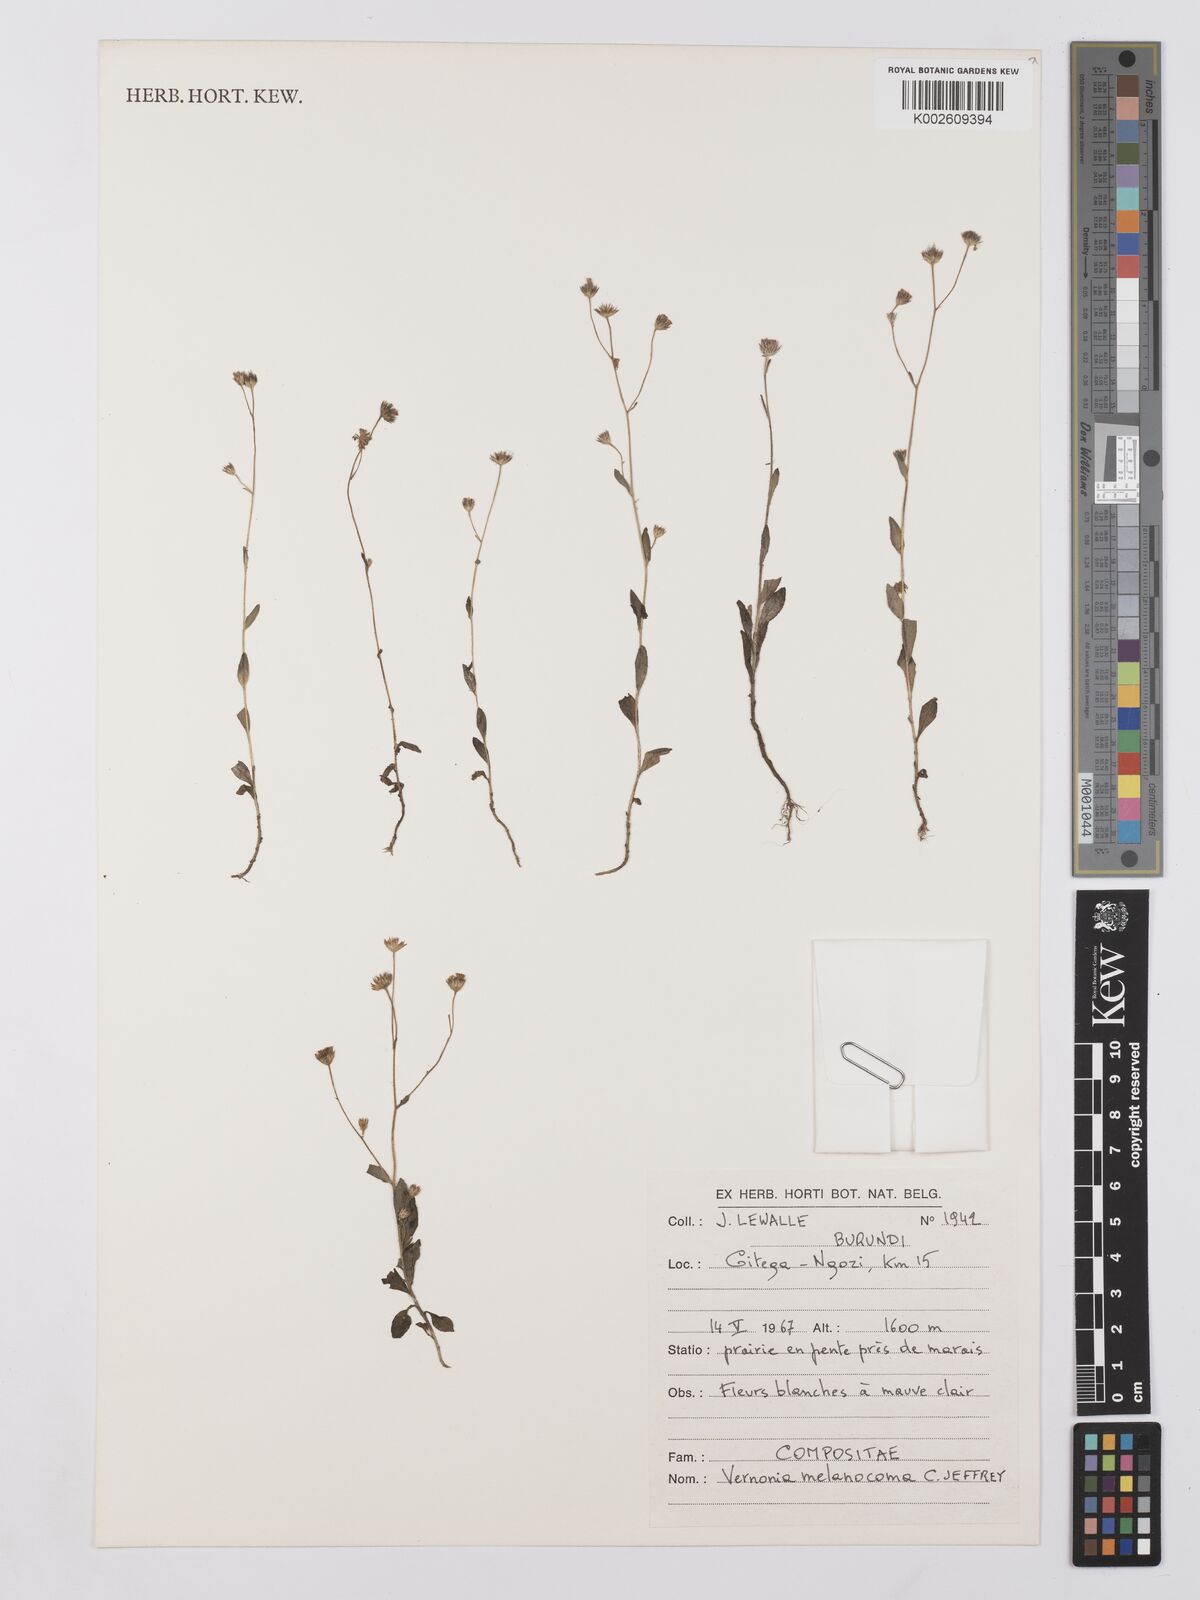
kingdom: Plantae
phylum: Tracheophyta
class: Magnoliopsida
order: Asterales
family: Asteraceae
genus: Vernonia
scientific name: Vernonia melanocoma
